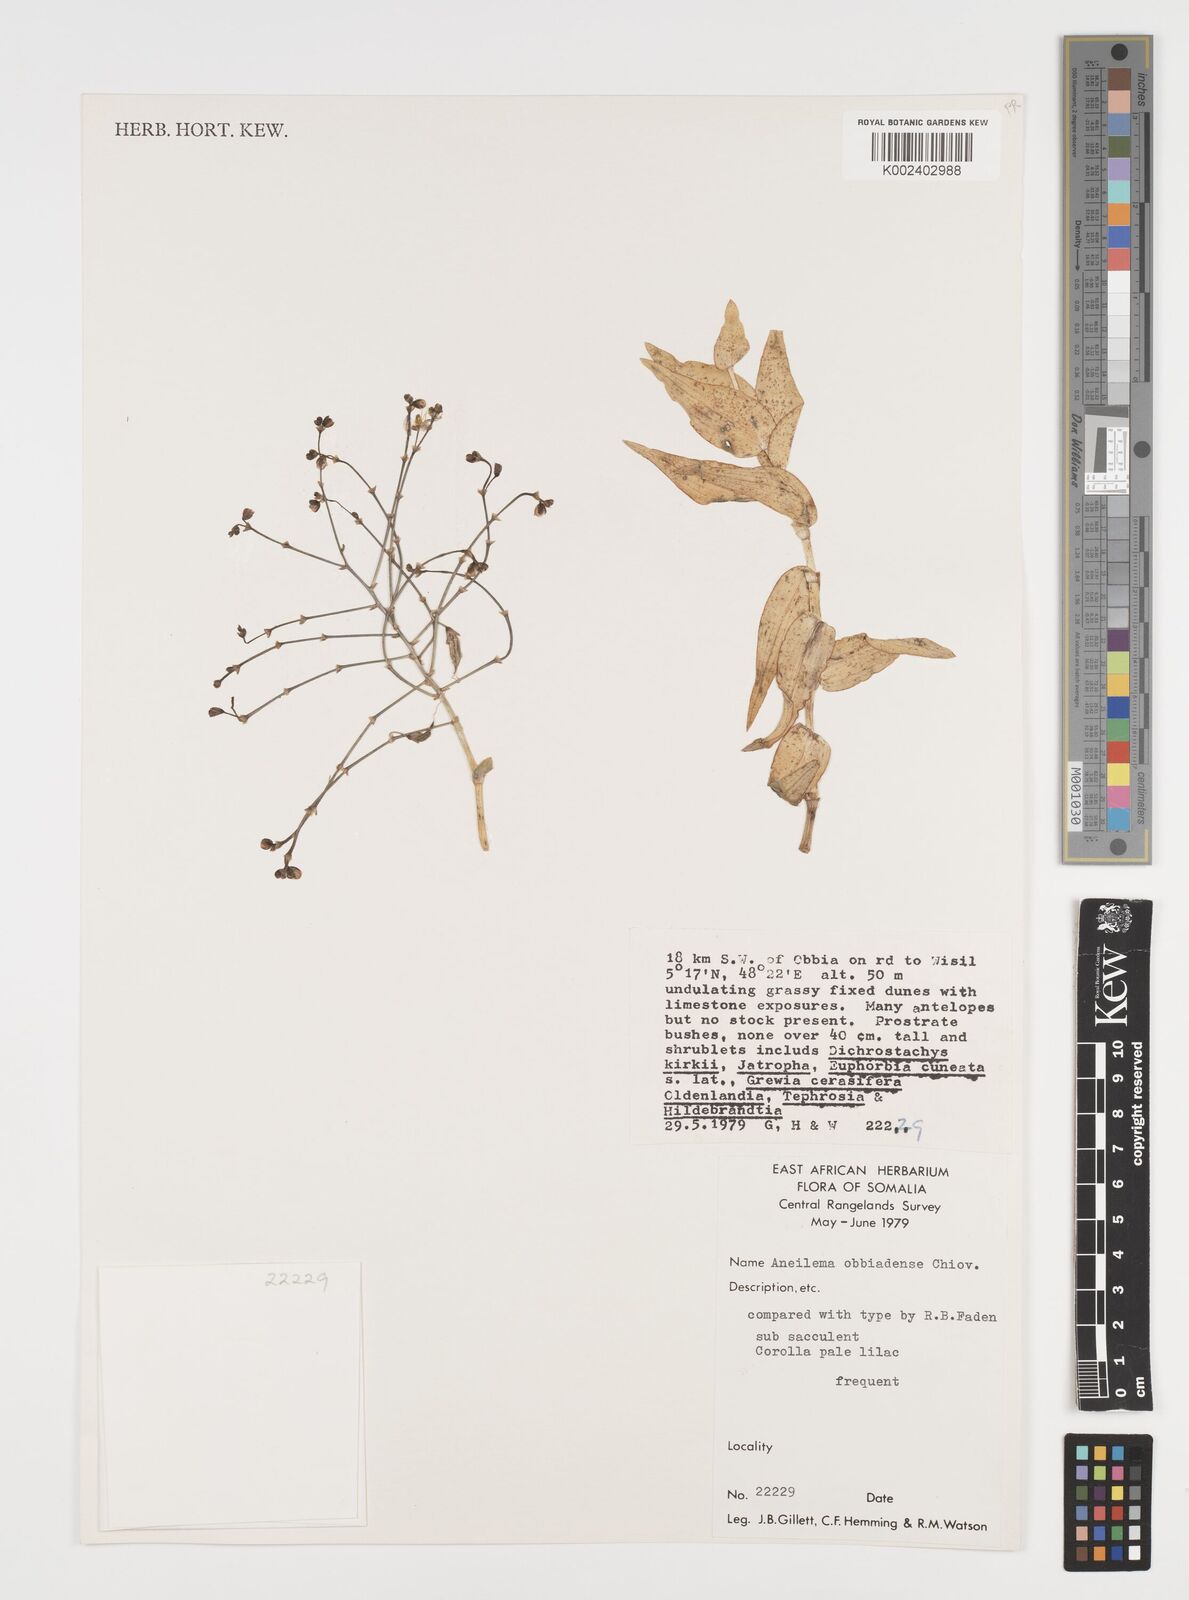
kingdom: Plantae
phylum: Tracheophyta
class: Liliopsida
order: Commelinales
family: Commelinaceae
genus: Aneilema
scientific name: Aneilema obbiadense
